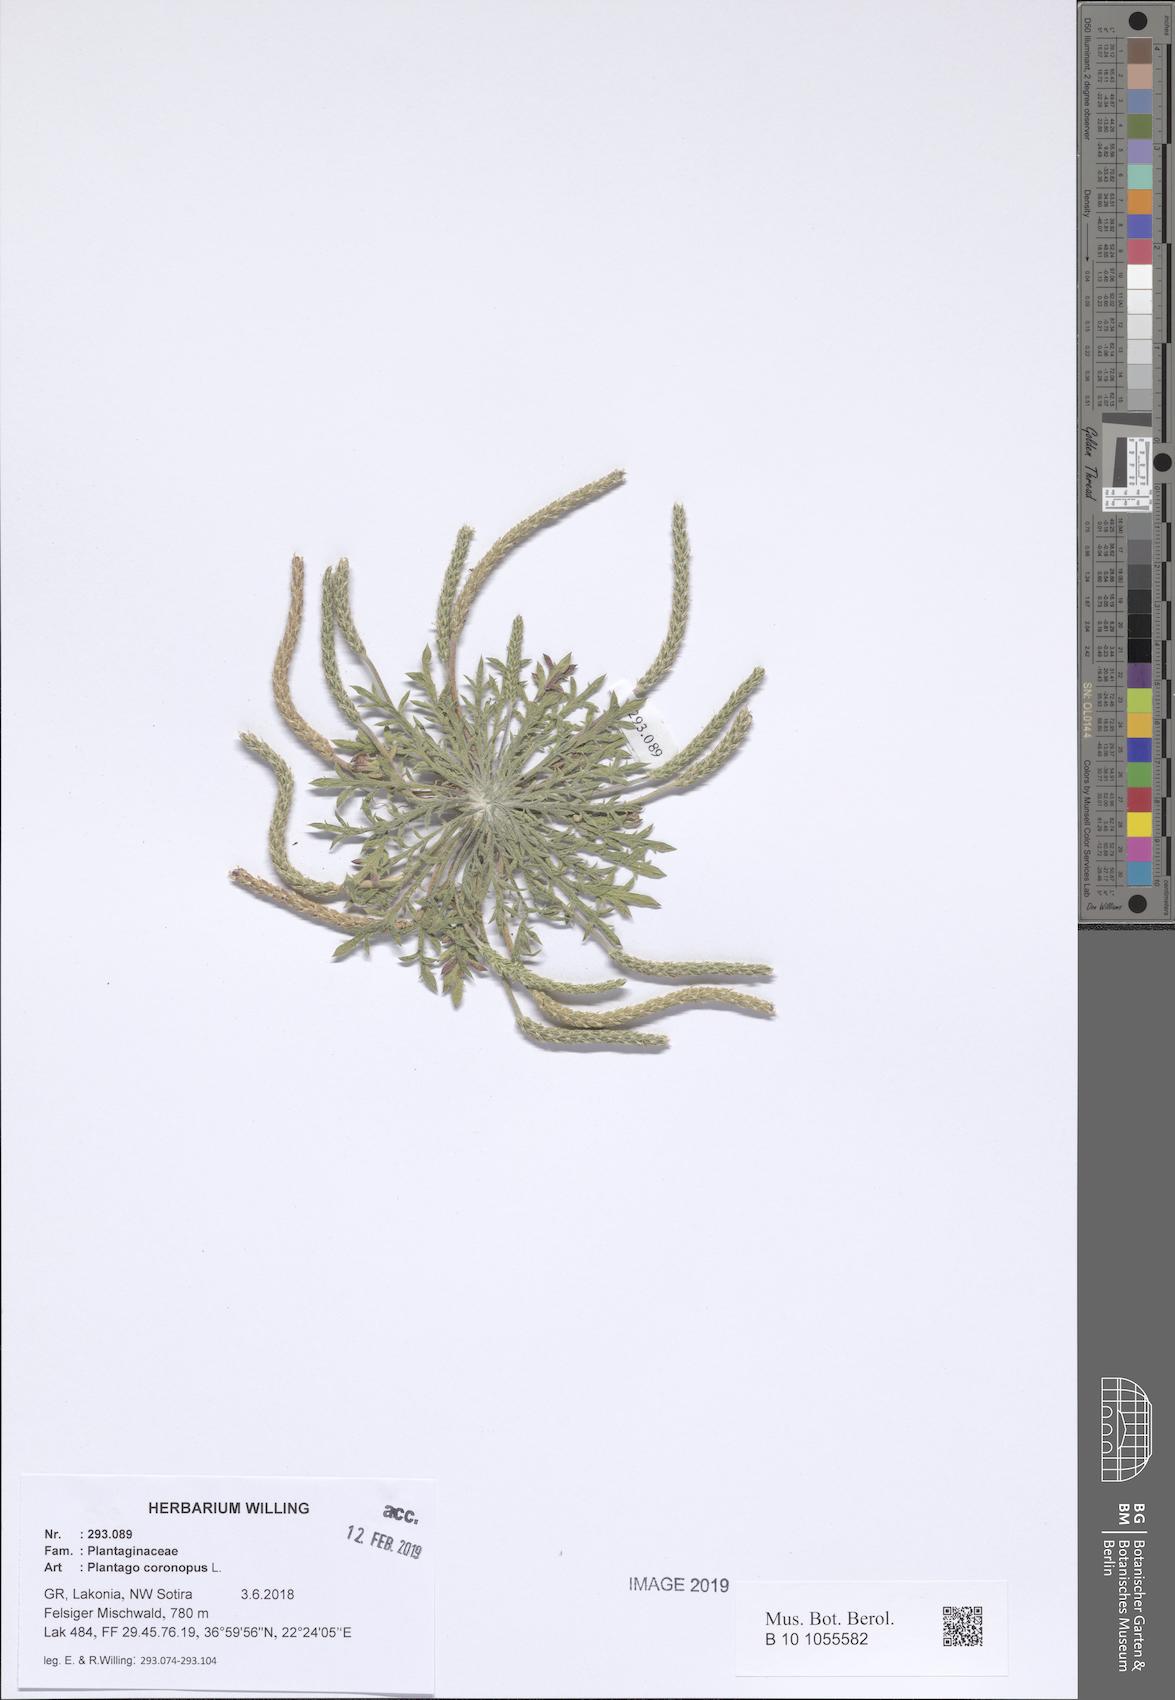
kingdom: Plantae
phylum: Tracheophyta
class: Magnoliopsida
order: Lamiales
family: Plantaginaceae
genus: Plantago
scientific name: Plantago coronopus
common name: Buck's-horn plantain
